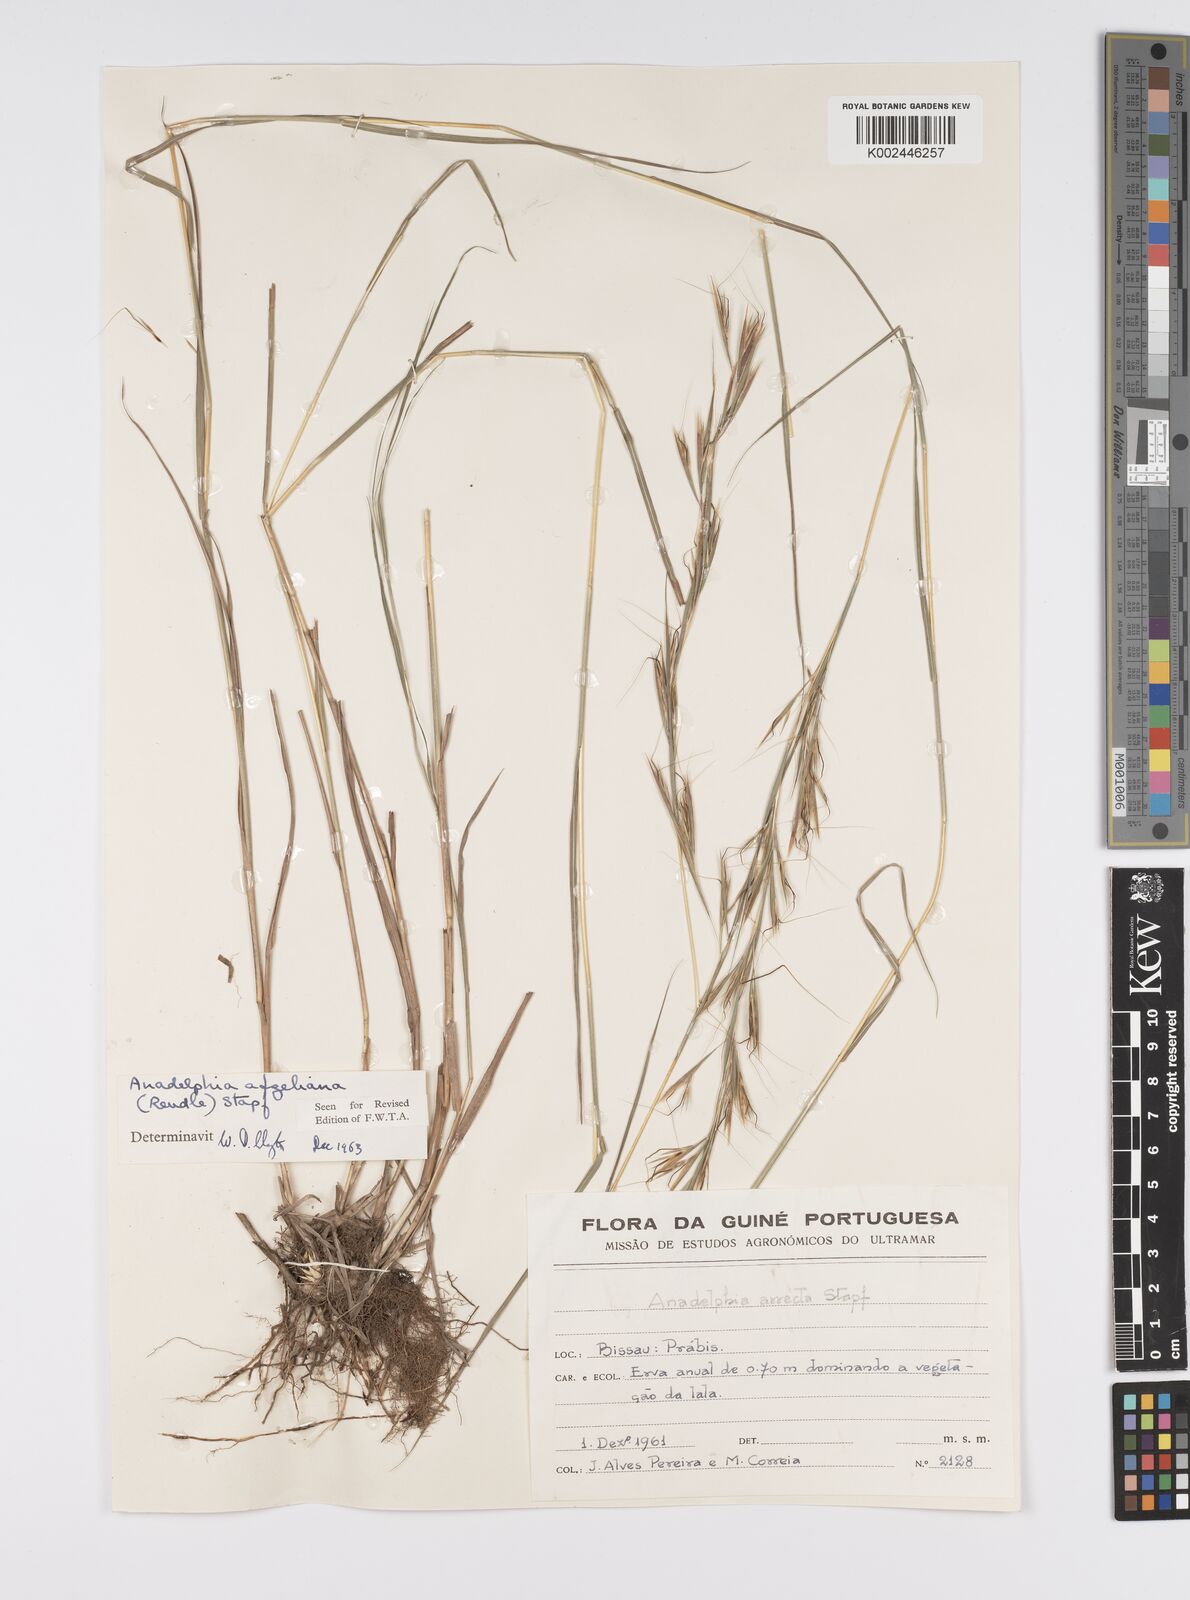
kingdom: Plantae
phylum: Tracheophyta
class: Liliopsida
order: Poales
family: Poaceae
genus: Anadelphia
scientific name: Anadelphia afzeliana
